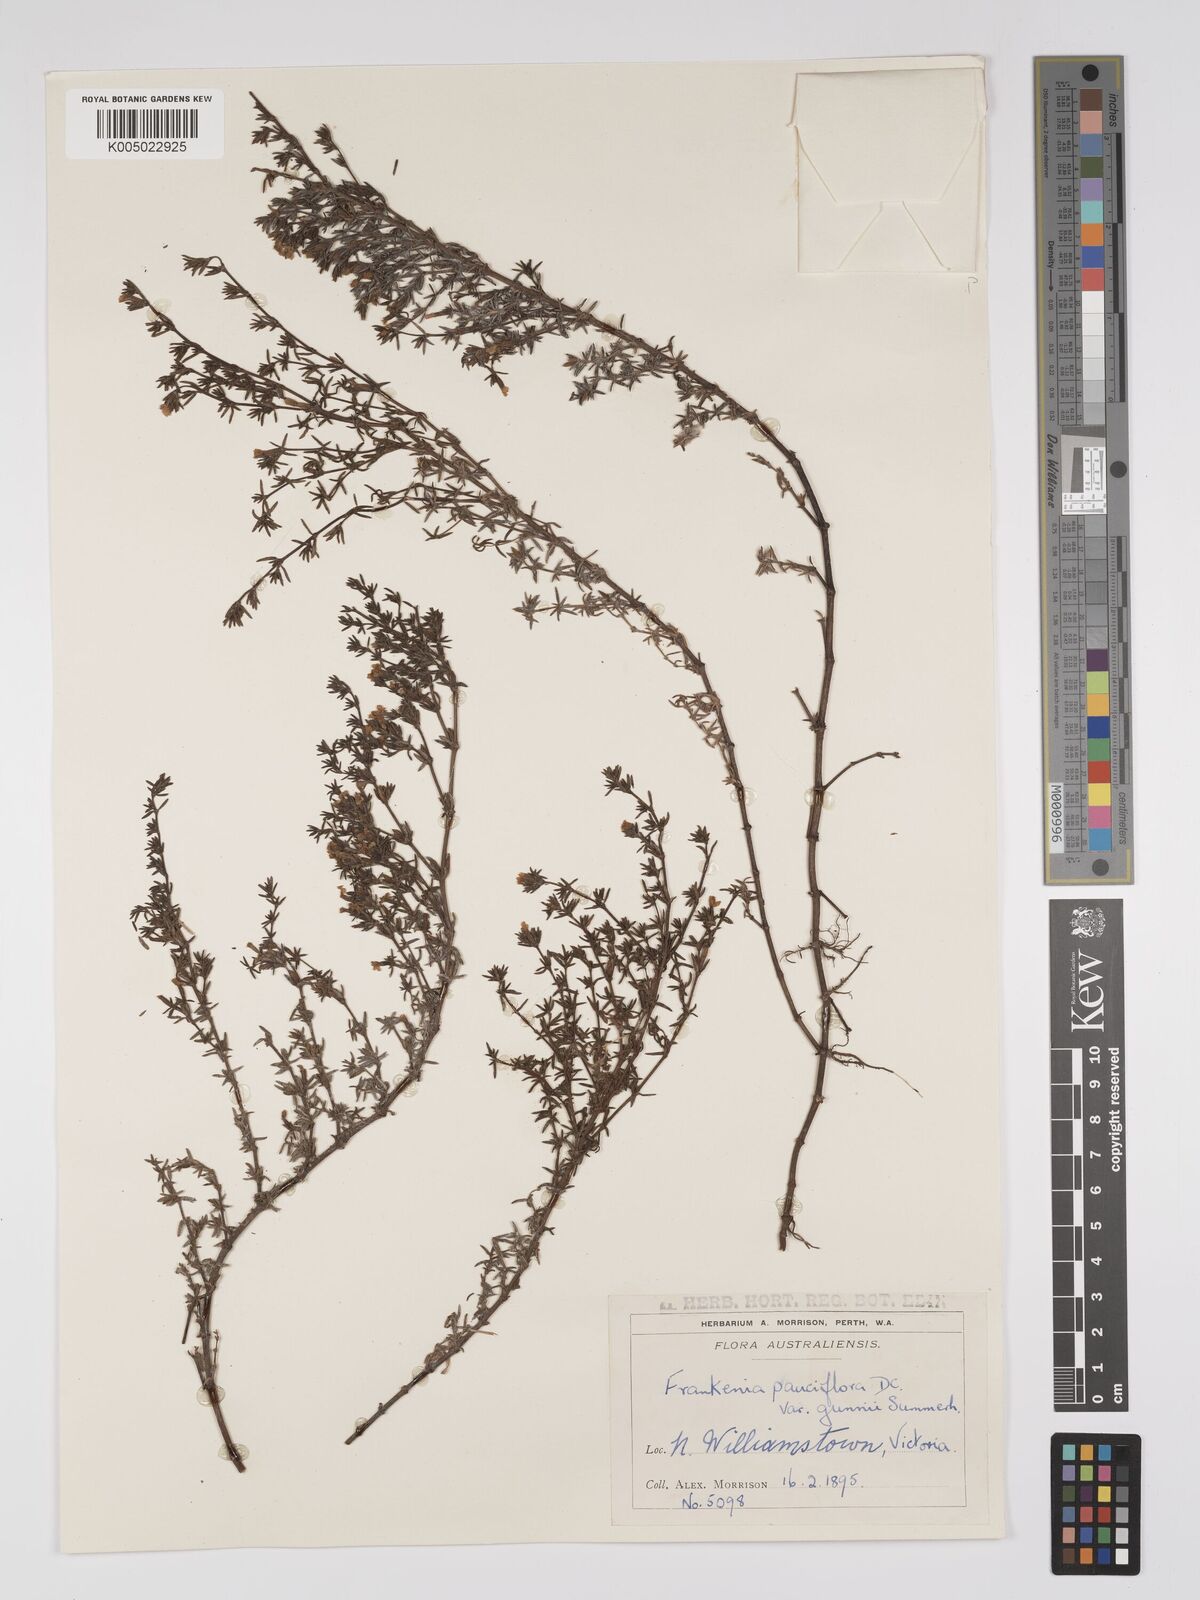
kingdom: Plantae
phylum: Tracheophyta
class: Magnoliopsida
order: Caryophyllales
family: Frankeniaceae
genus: Frankenia
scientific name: Frankenia pauciflora
